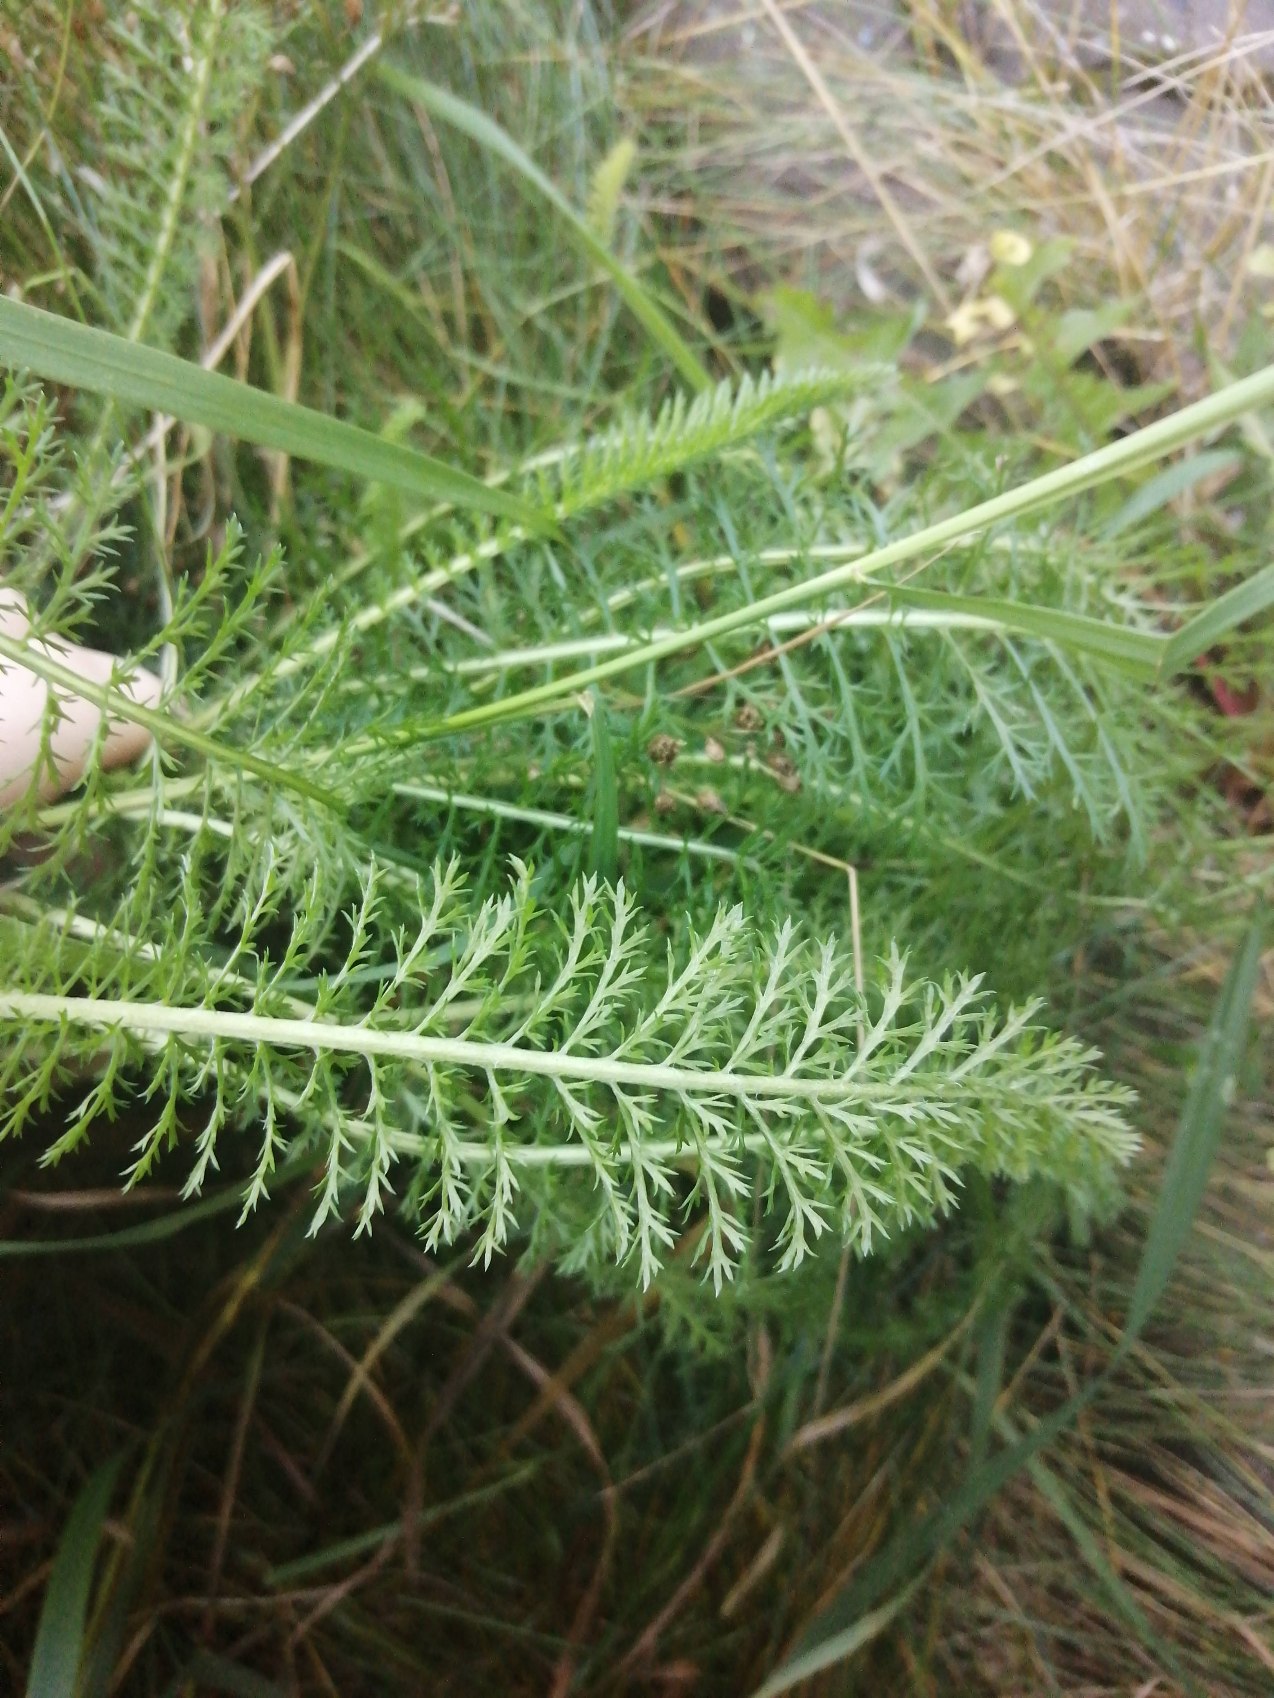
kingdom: Plantae
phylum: Tracheophyta
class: Magnoliopsida
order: Asterales
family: Asteraceae
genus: Achillea
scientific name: Achillea millefolium
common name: Almindelig røllike
